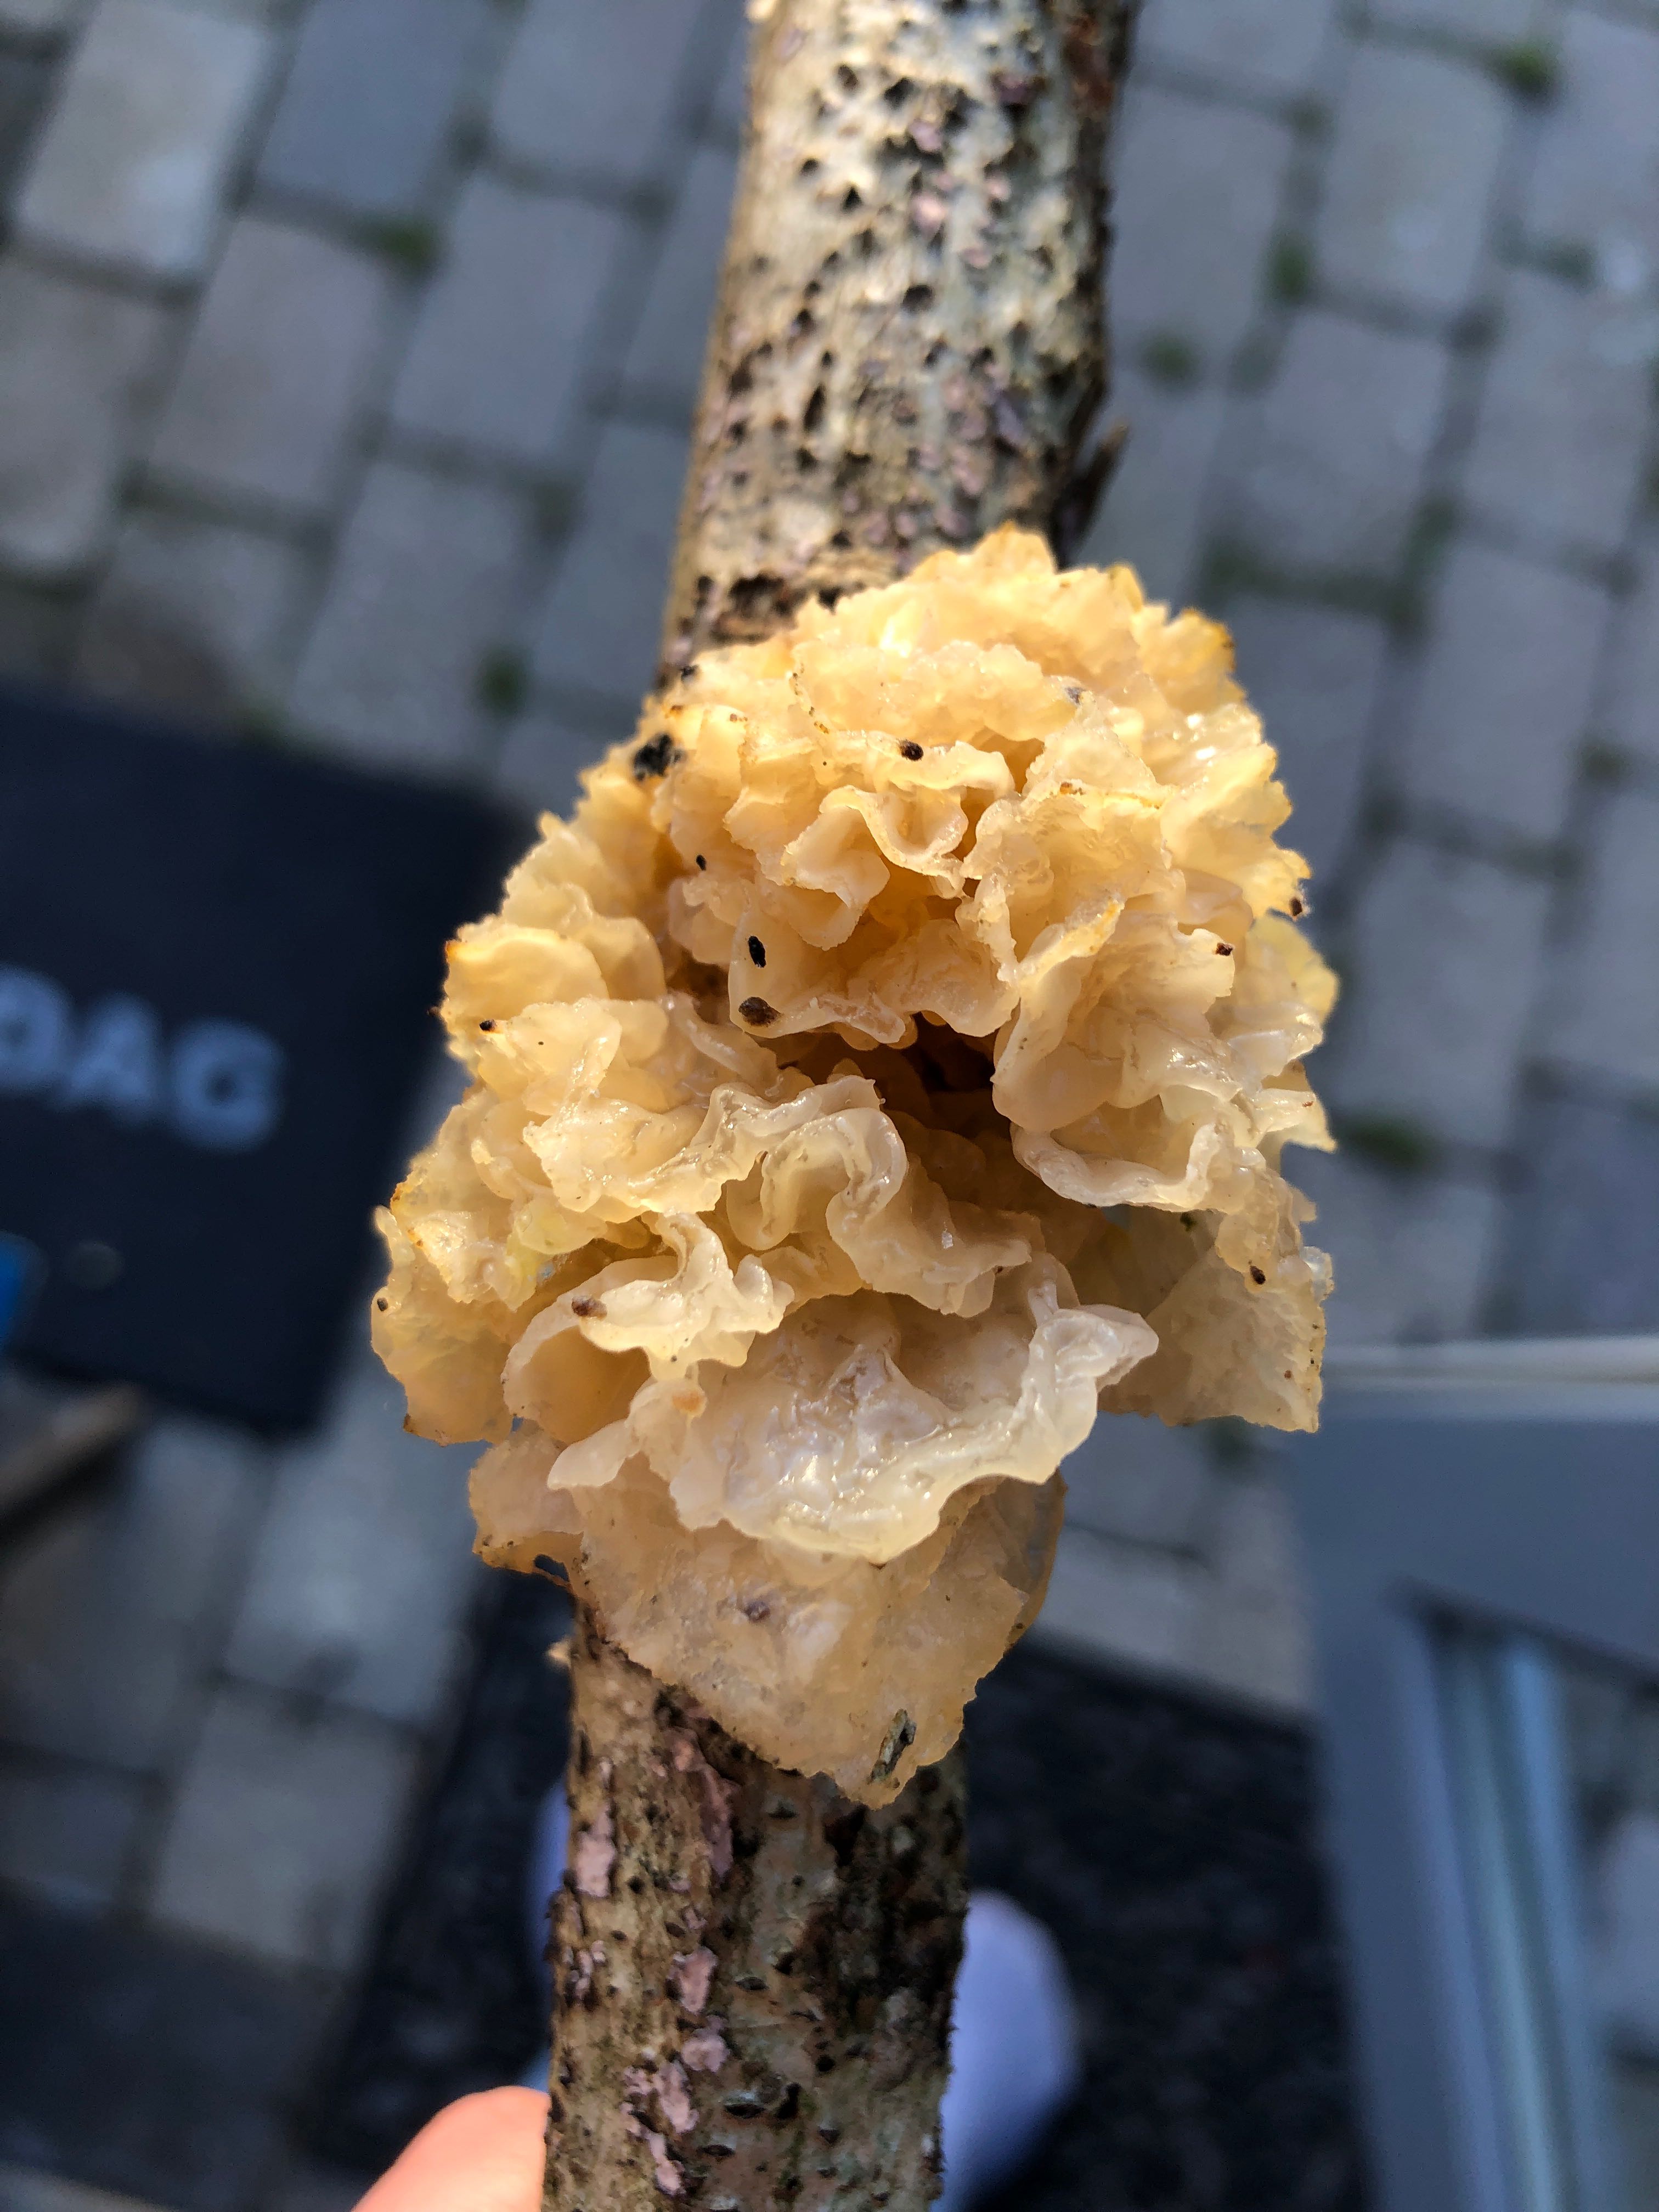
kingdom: Fungi
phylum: Basidiomycota
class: Tremellomycetes
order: Tremellales
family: Tremellaceae
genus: Tremella
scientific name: Tremella mesenterica
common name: gul bævresvamp
